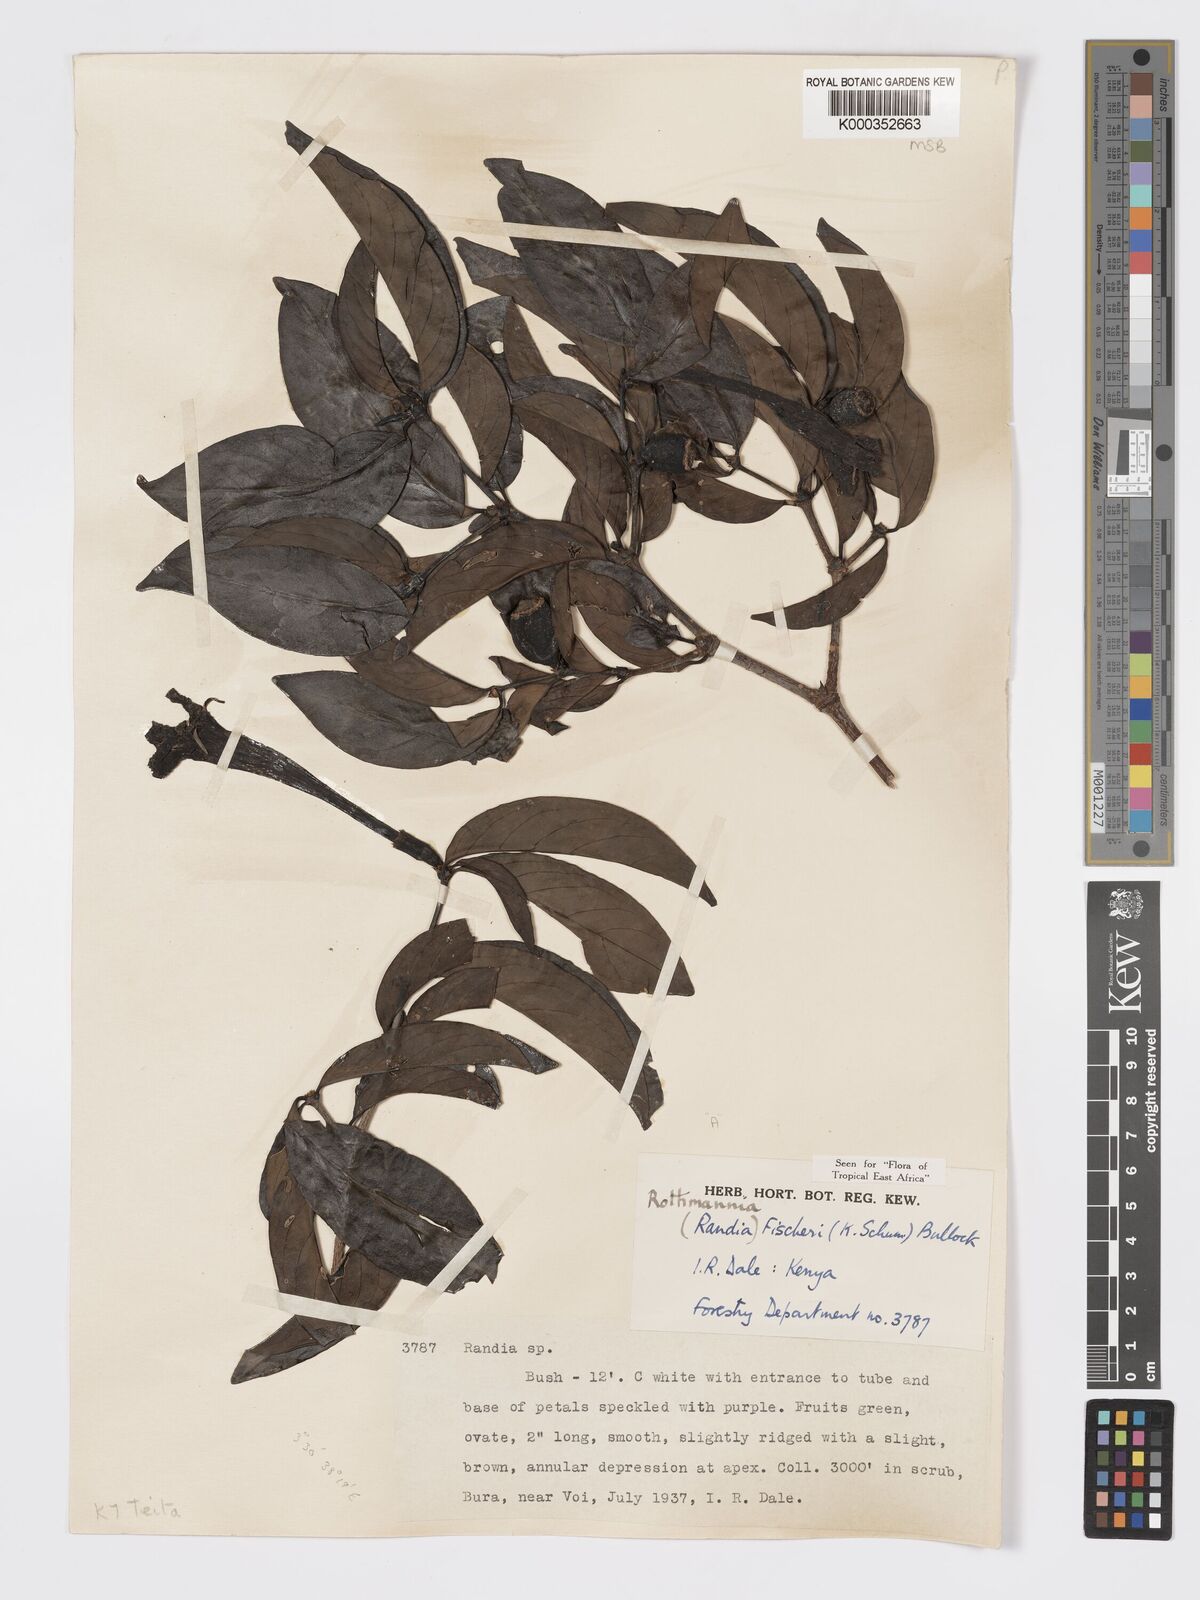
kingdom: Plantae
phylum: Tracheophyta
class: Magnoliopsida
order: Gentianales
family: Rubiaceae
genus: Rothmannia
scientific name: Rothmannia fischeri
